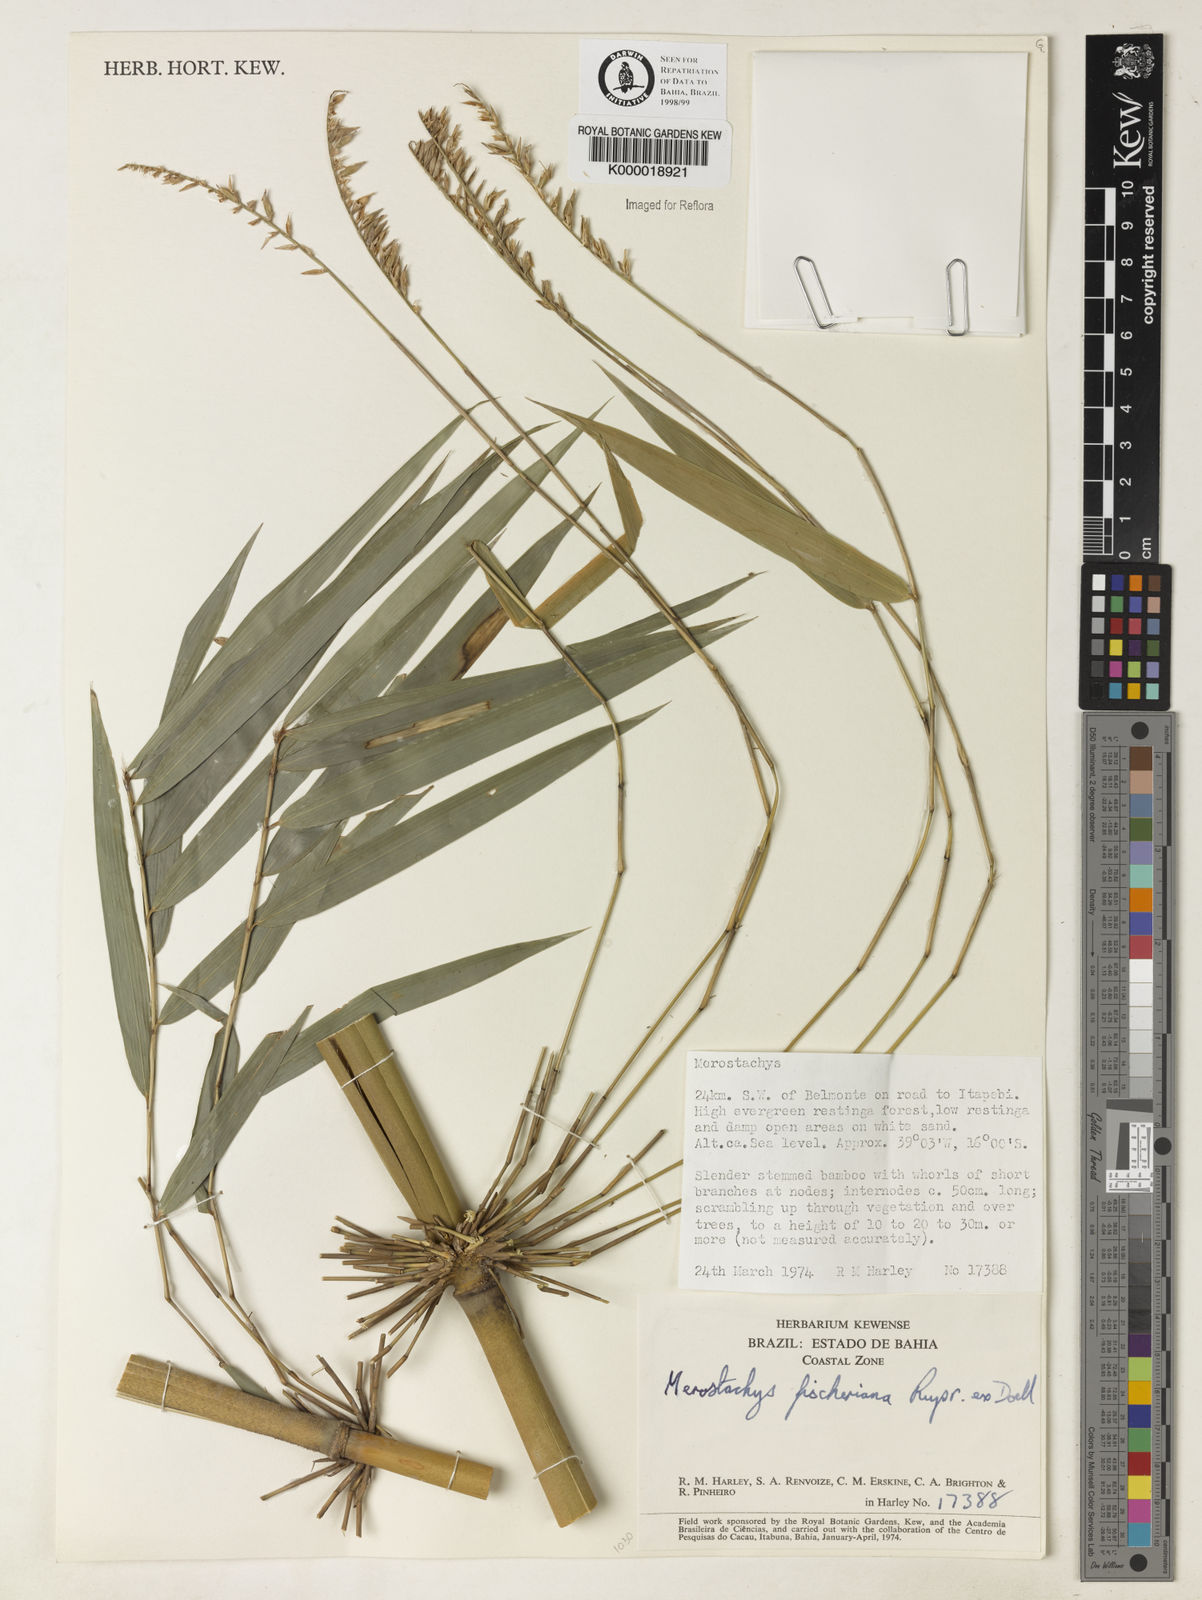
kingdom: Plantae
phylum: Tracheophyta
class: Liliopsida
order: Poales
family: Poaceae
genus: Merostachys
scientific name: Merostachys
